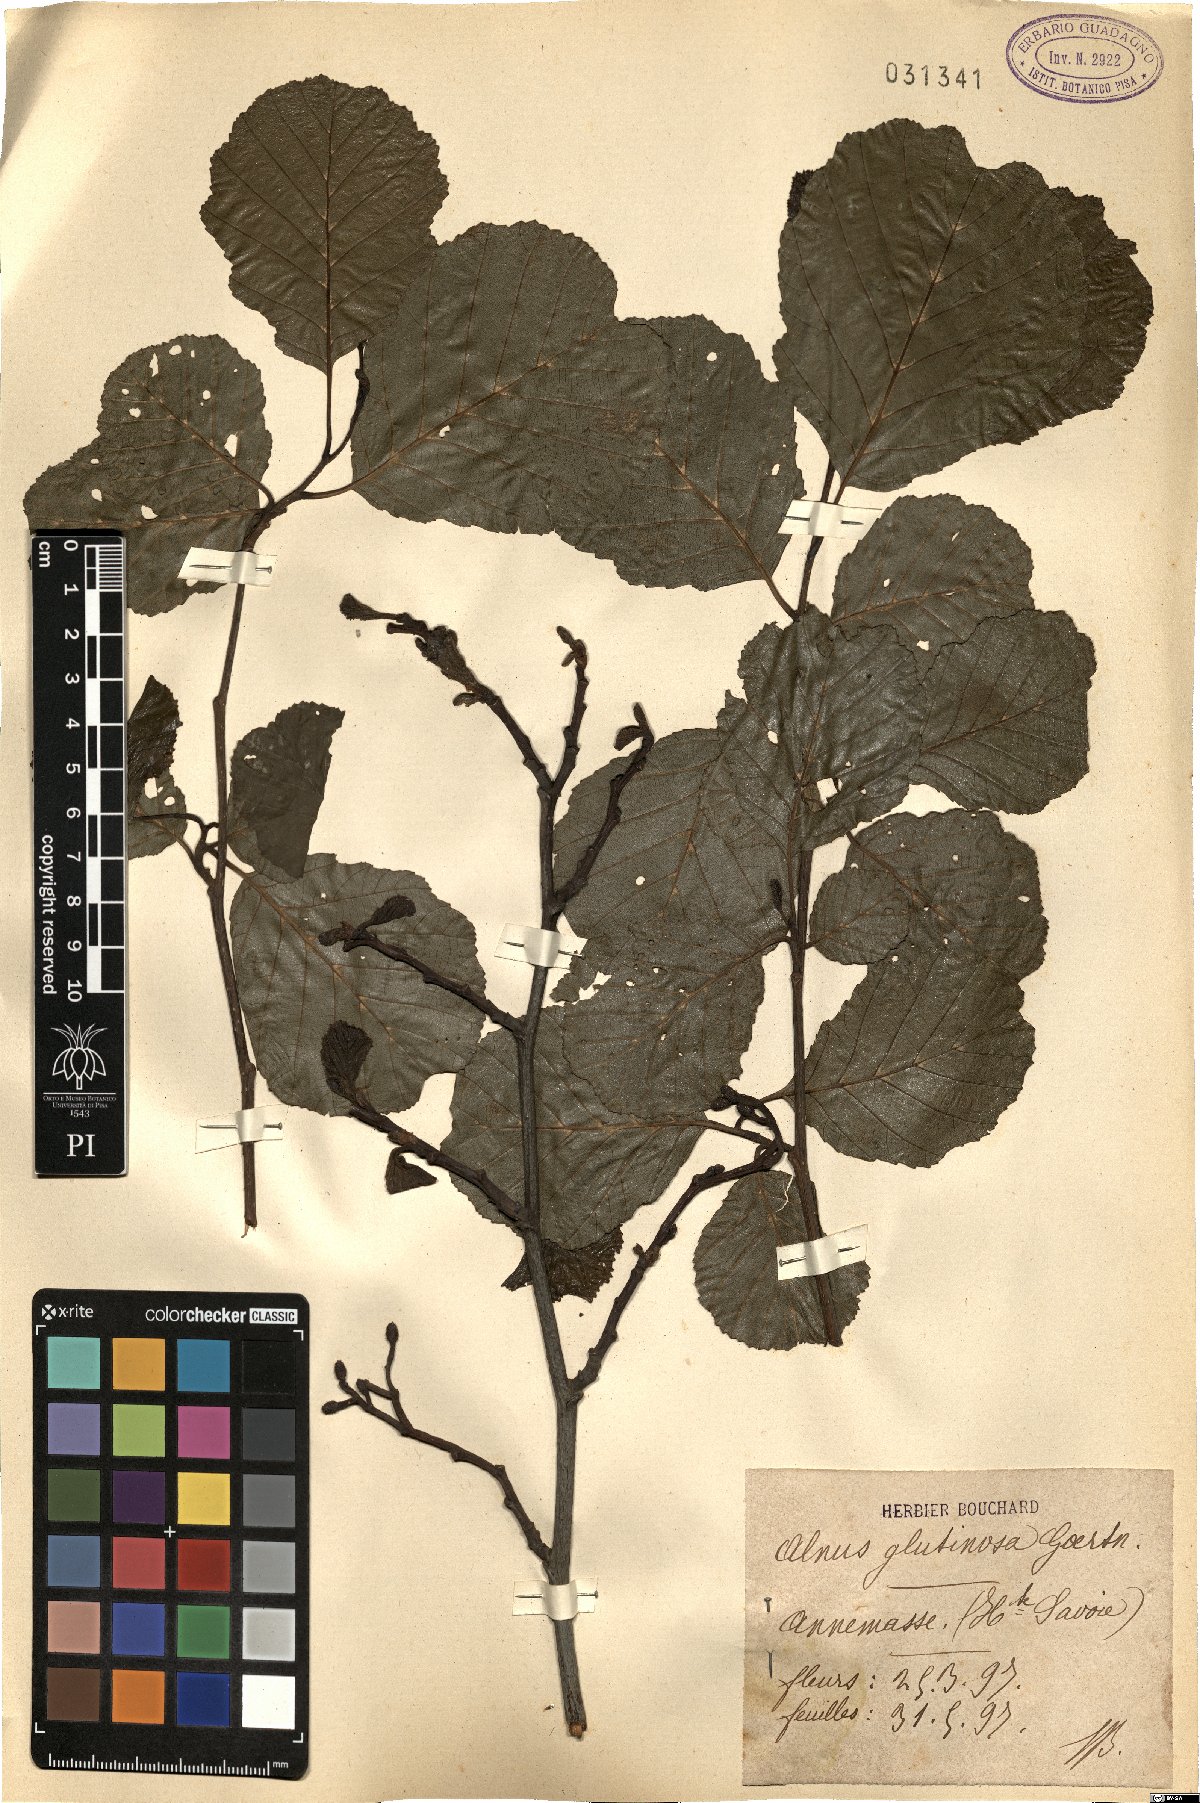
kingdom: Plantae
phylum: Tracheophyta
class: Magnoliopsida
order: Fagales
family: Betulaceae
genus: Alnus
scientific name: Alnus glutinosa
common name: Black alder
